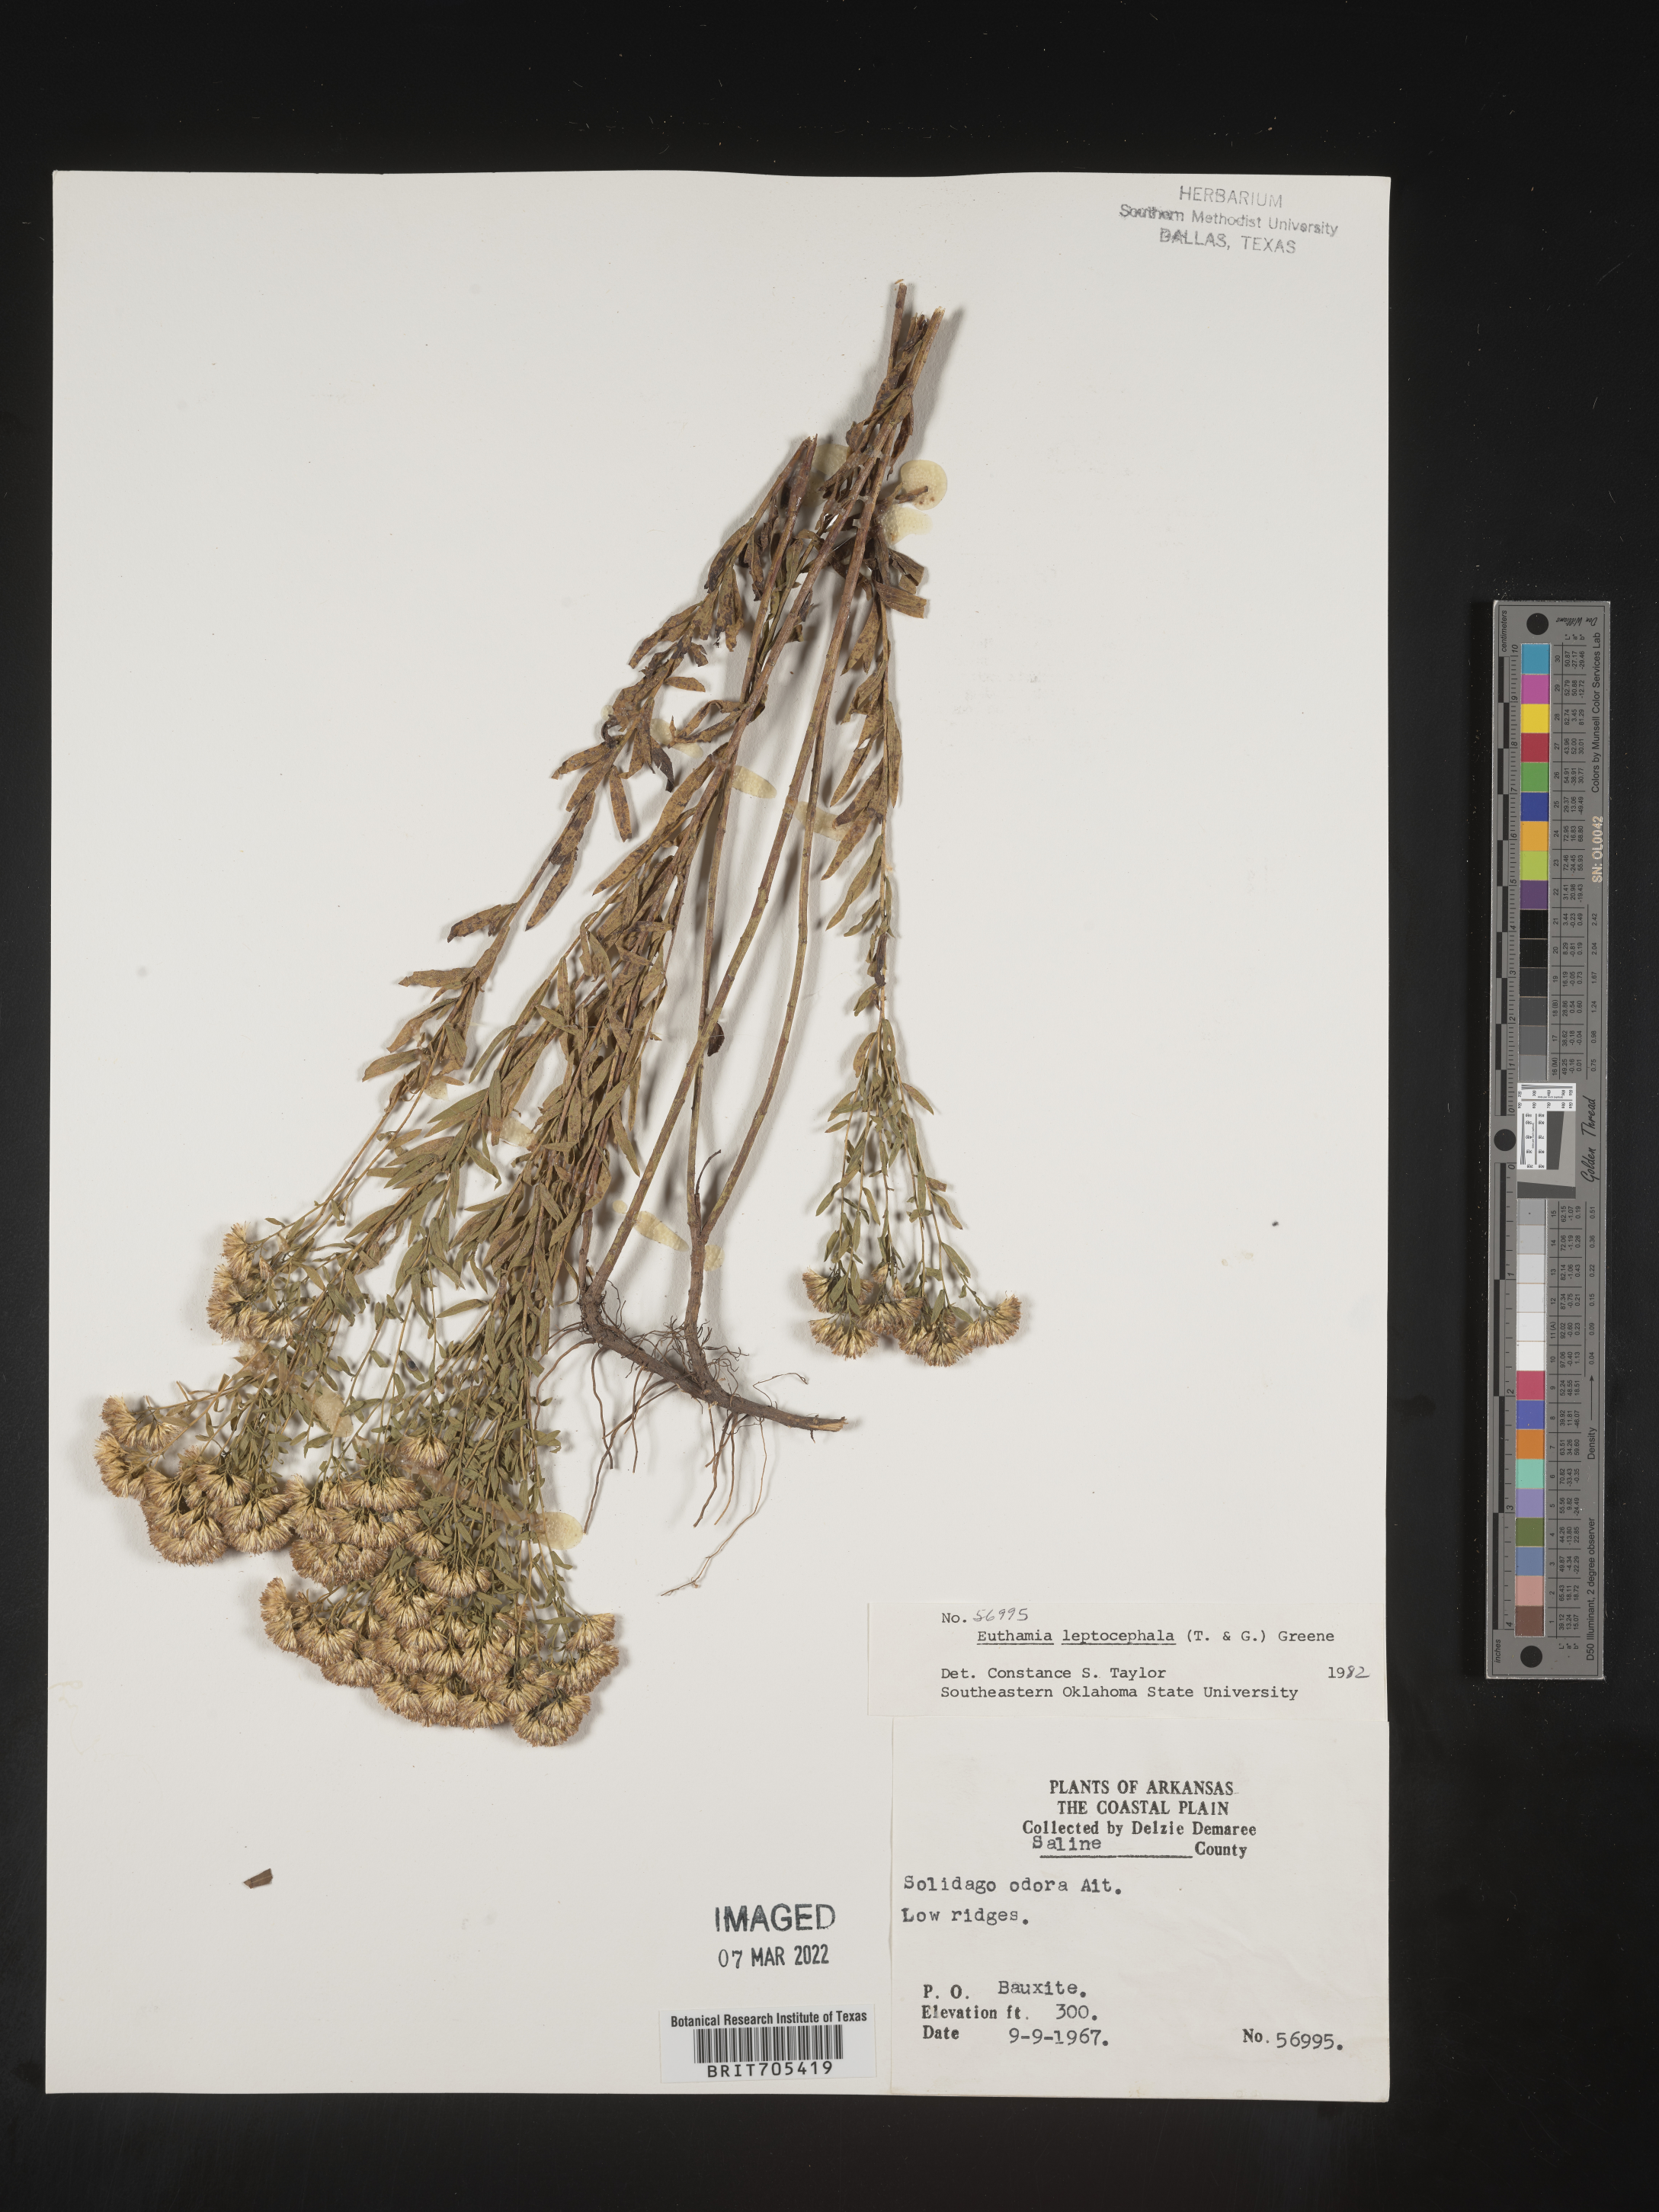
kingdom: Plantae
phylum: Tracheophyta
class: Magnoliopsida
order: Asterales
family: Asteraceae
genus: Euthamia
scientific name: Euthamia leptocephala
